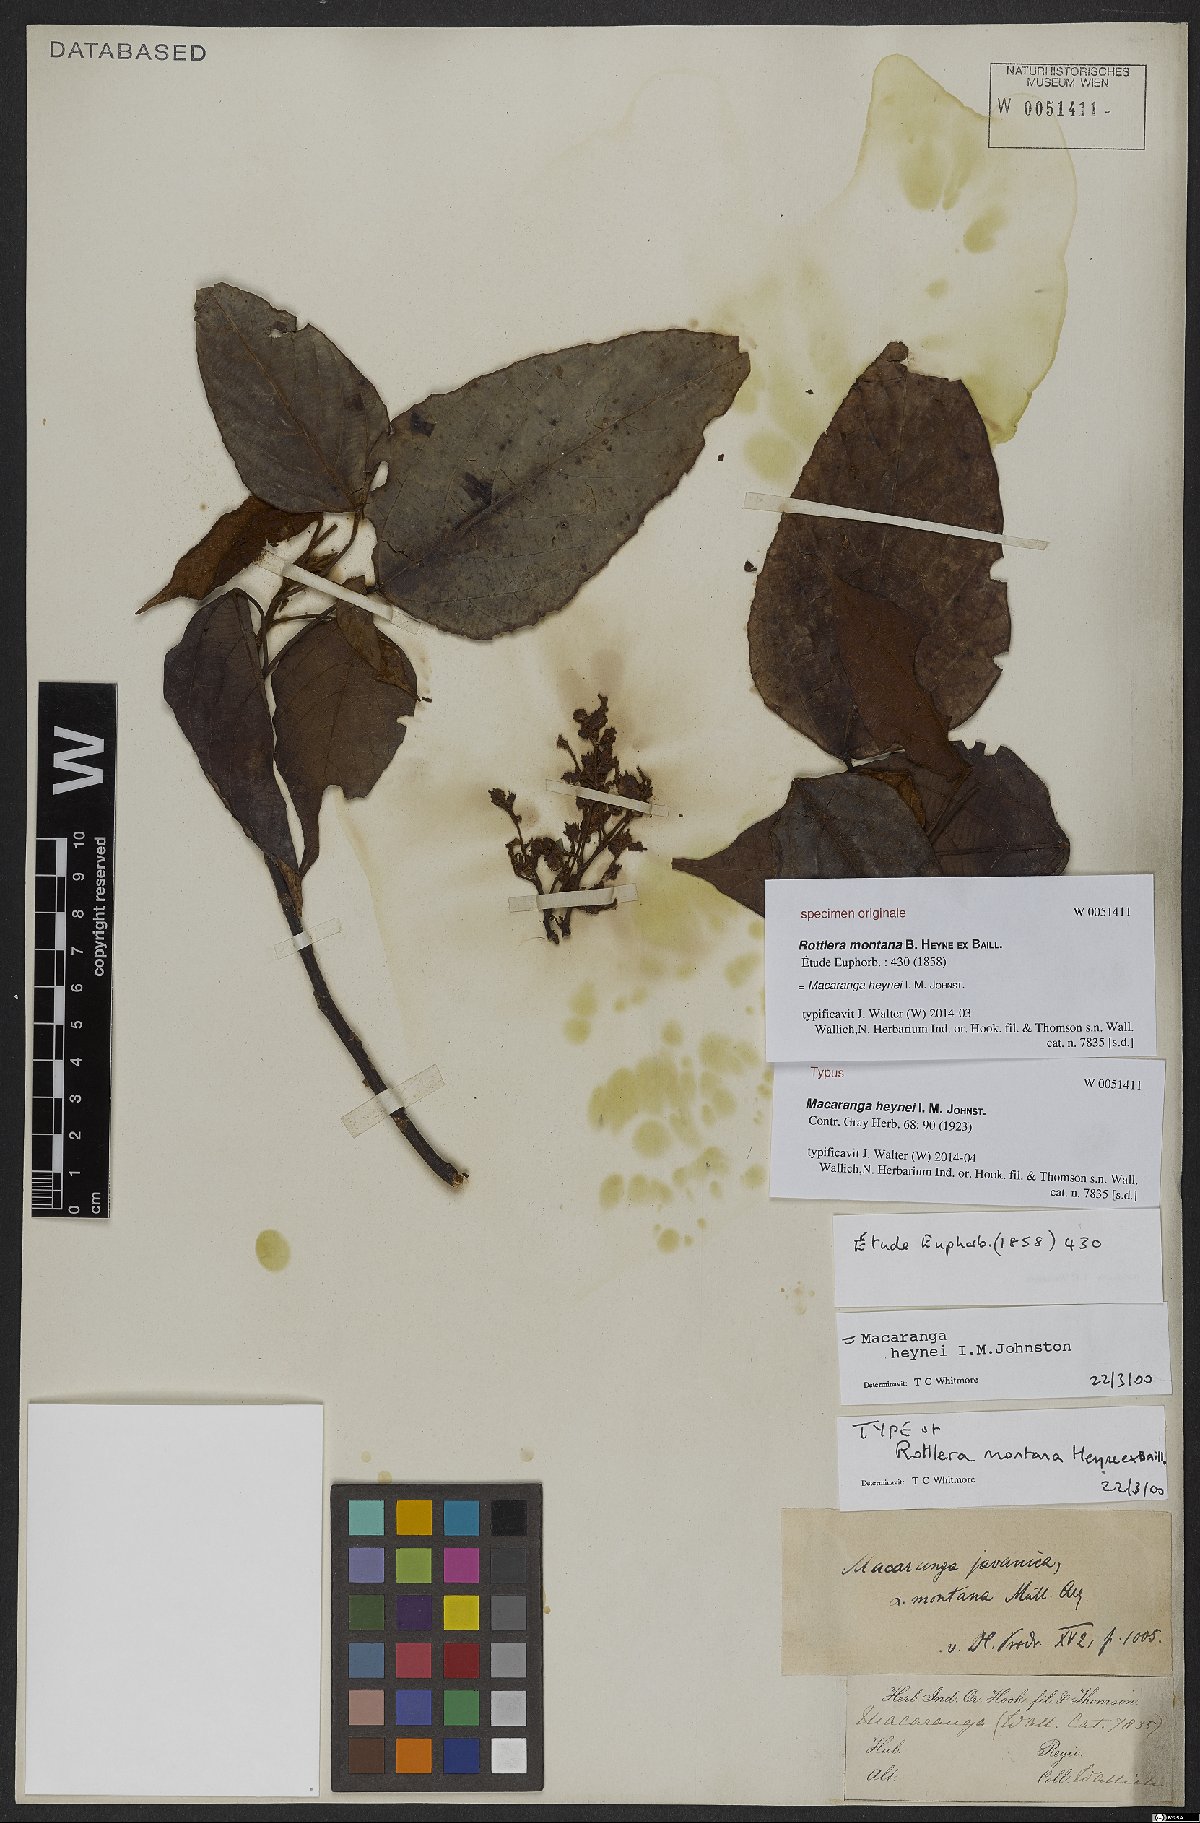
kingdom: Plantae
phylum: Tracheophyta
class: Magnoliopsida
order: Malpighiales
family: Euphorbiaceae
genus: Macaranga
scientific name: Macaranga heynei
